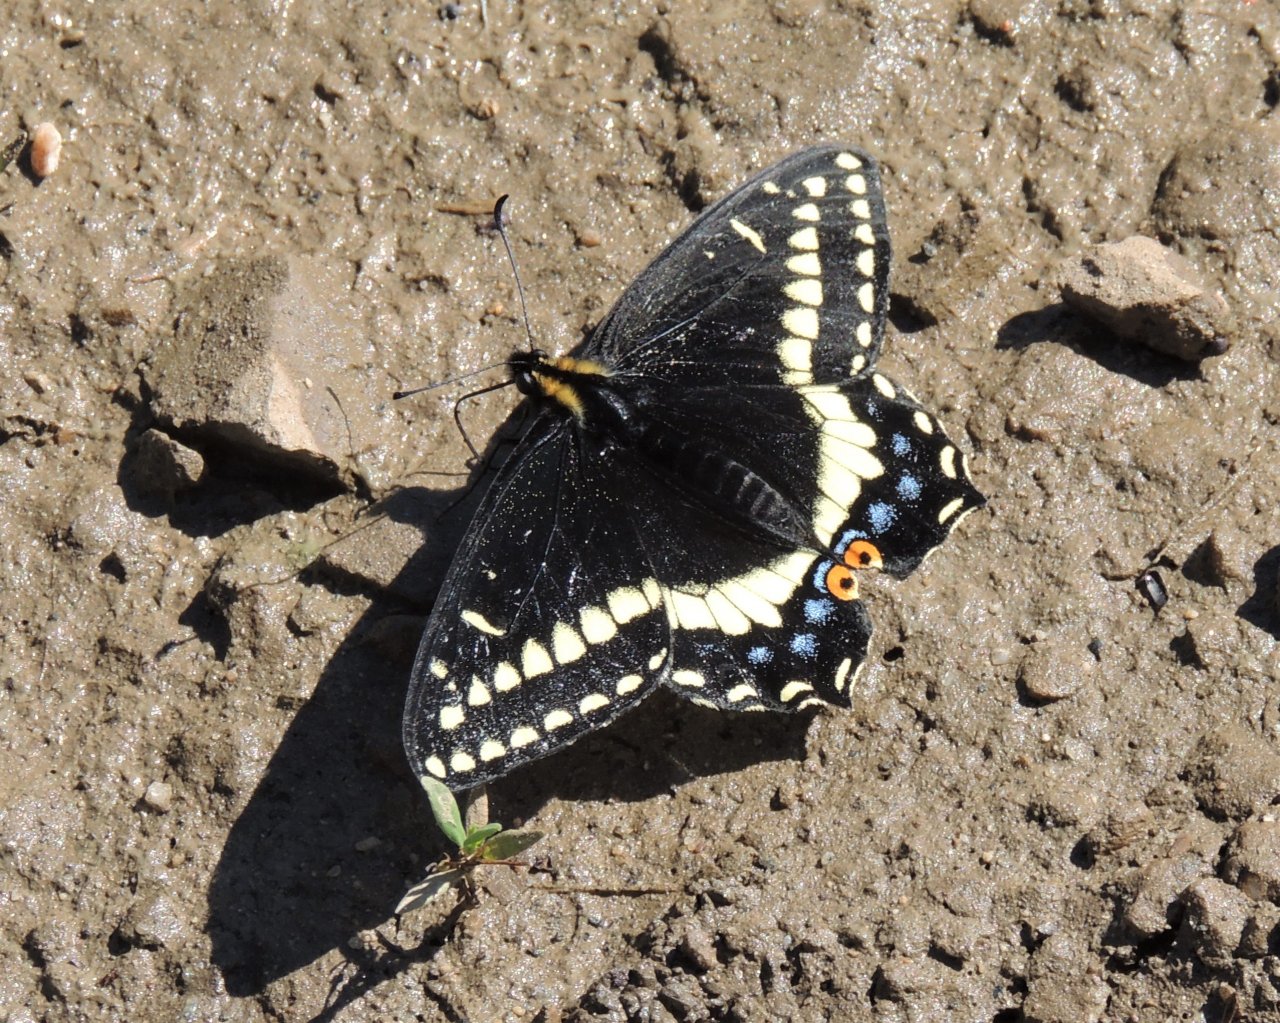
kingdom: Animalia
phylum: Arthropoda
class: Insecta
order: Lepidoptera
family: Papilionidae
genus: Papilio
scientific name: Papilio indra
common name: Indra Swallowtail
